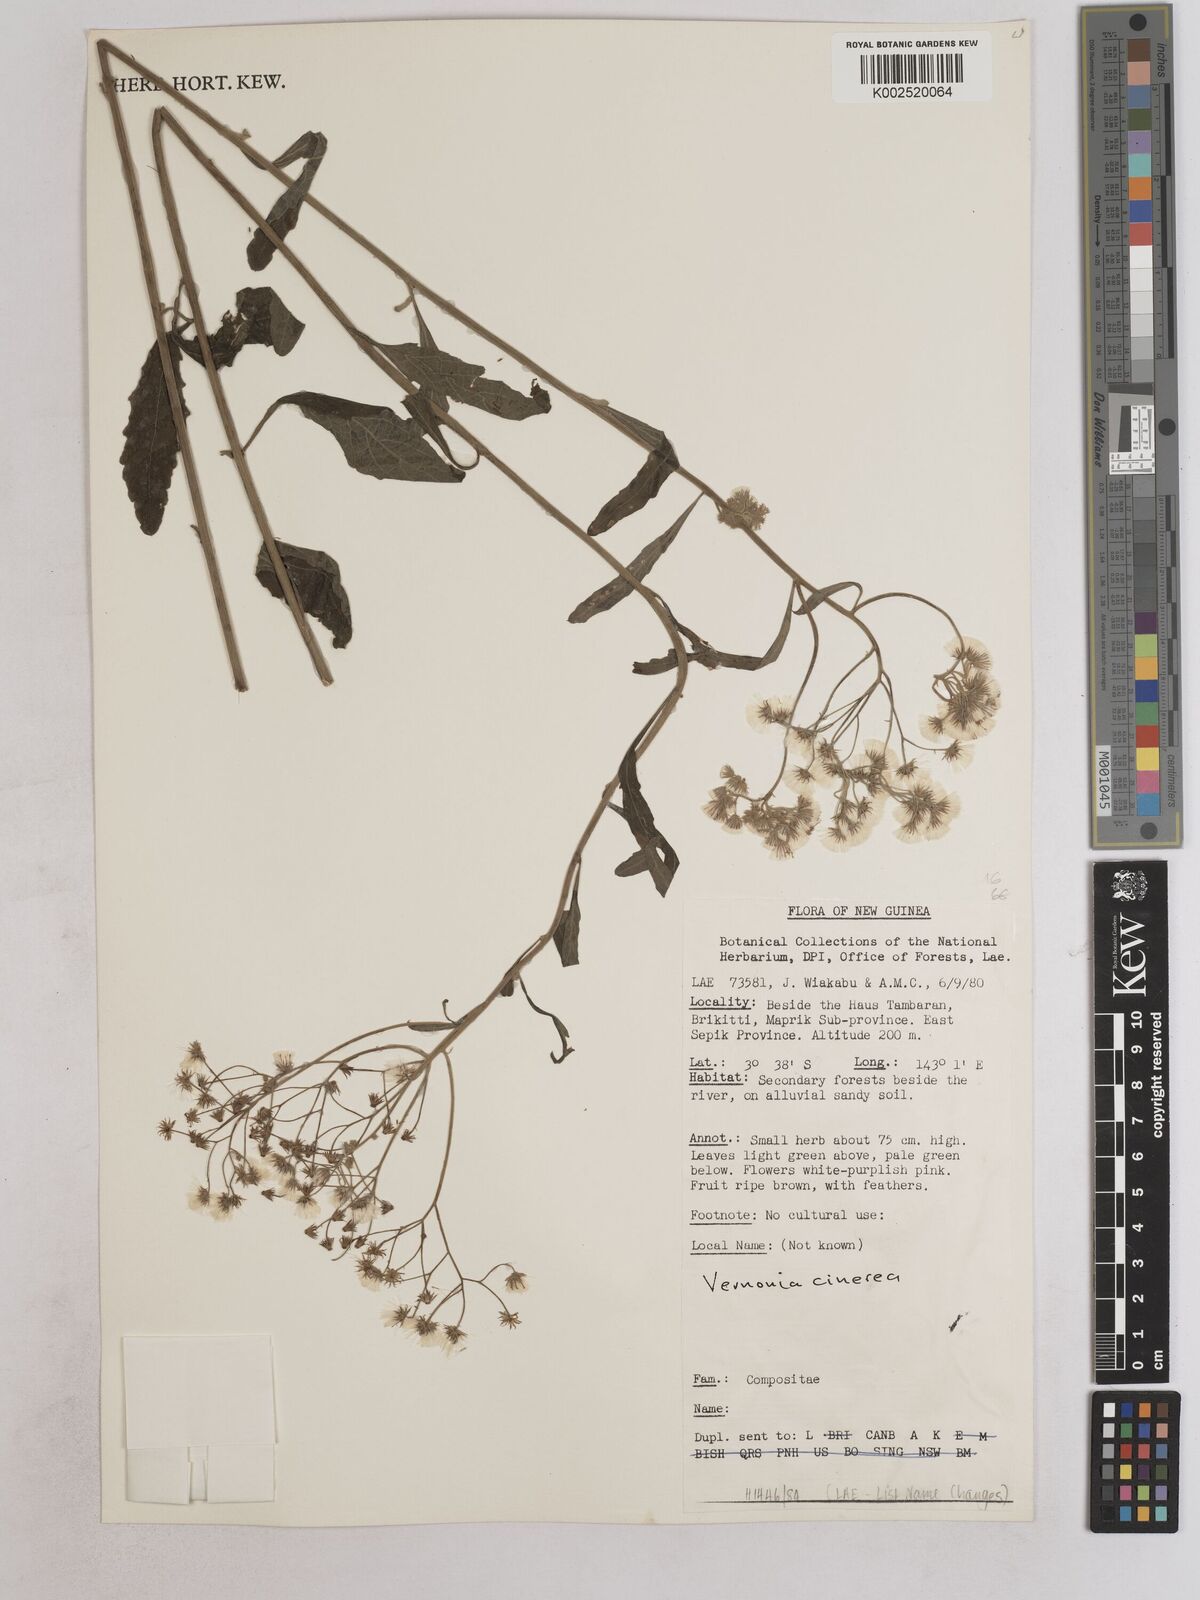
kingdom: Plantae
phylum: Tracheophyta
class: Magnoliopsida
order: Asterales
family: Asteraceae
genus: Cyanthillium
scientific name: Cyanthillium cinereum
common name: Little ironweed
